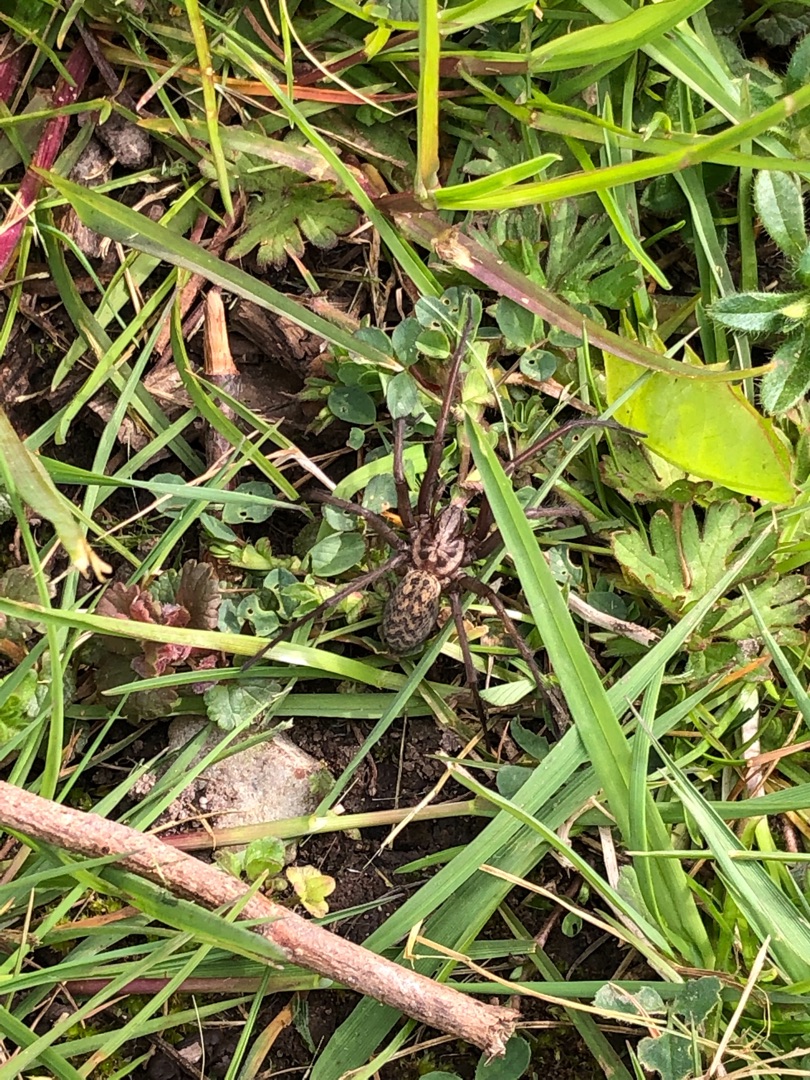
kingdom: Animalia
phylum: Arthropoda
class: Arachnida
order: Araneae
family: Agelenidae
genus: Eratigena
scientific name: Eratigena atrica
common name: Stor husedderkop
